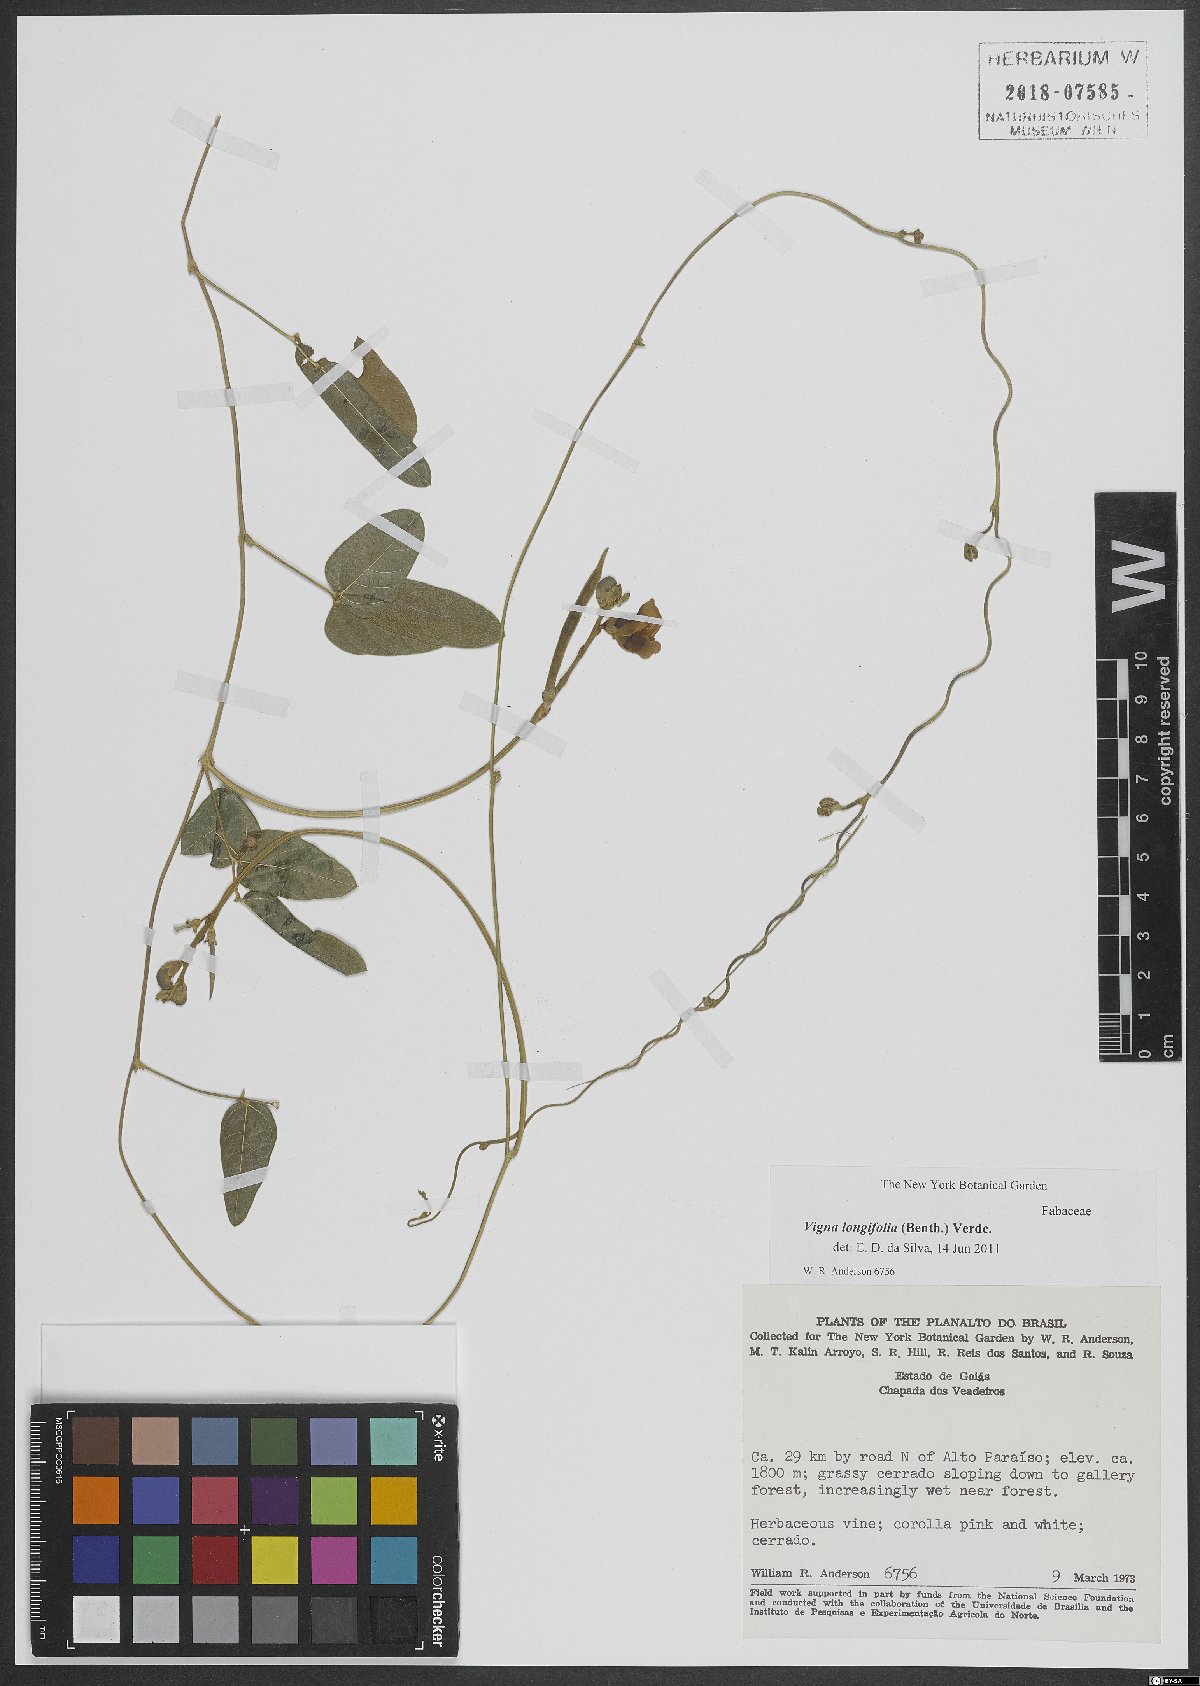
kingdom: Plantae
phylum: Tracheophyta
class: Magnoliopsida
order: Fabales
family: Fabaceae
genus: Vigna
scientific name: Vigna longifolia
